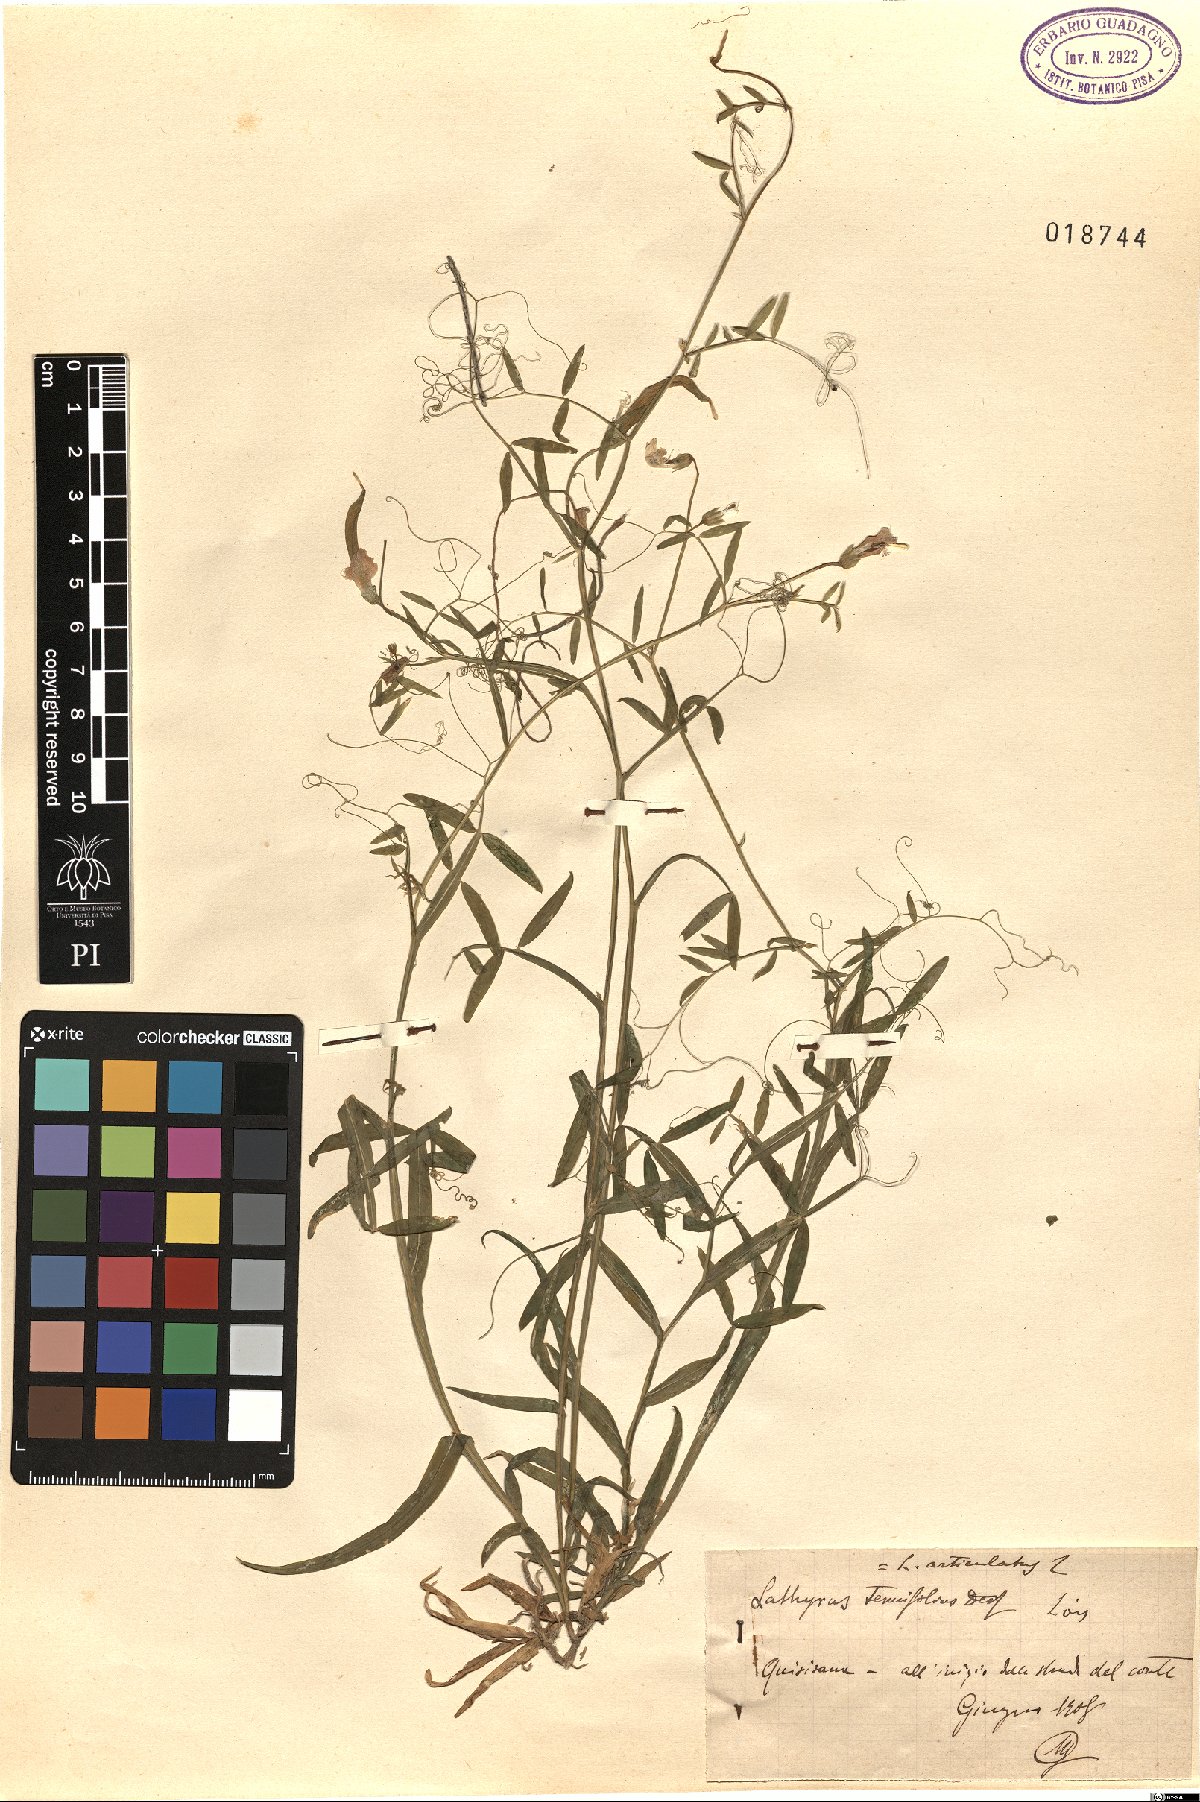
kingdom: Plantae
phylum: Tracheophyta
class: Magnoliopsida
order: Fabales
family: Fabaceae
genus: Lathyrus
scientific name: Lathyrus clymenum
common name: Spanish vetchling
